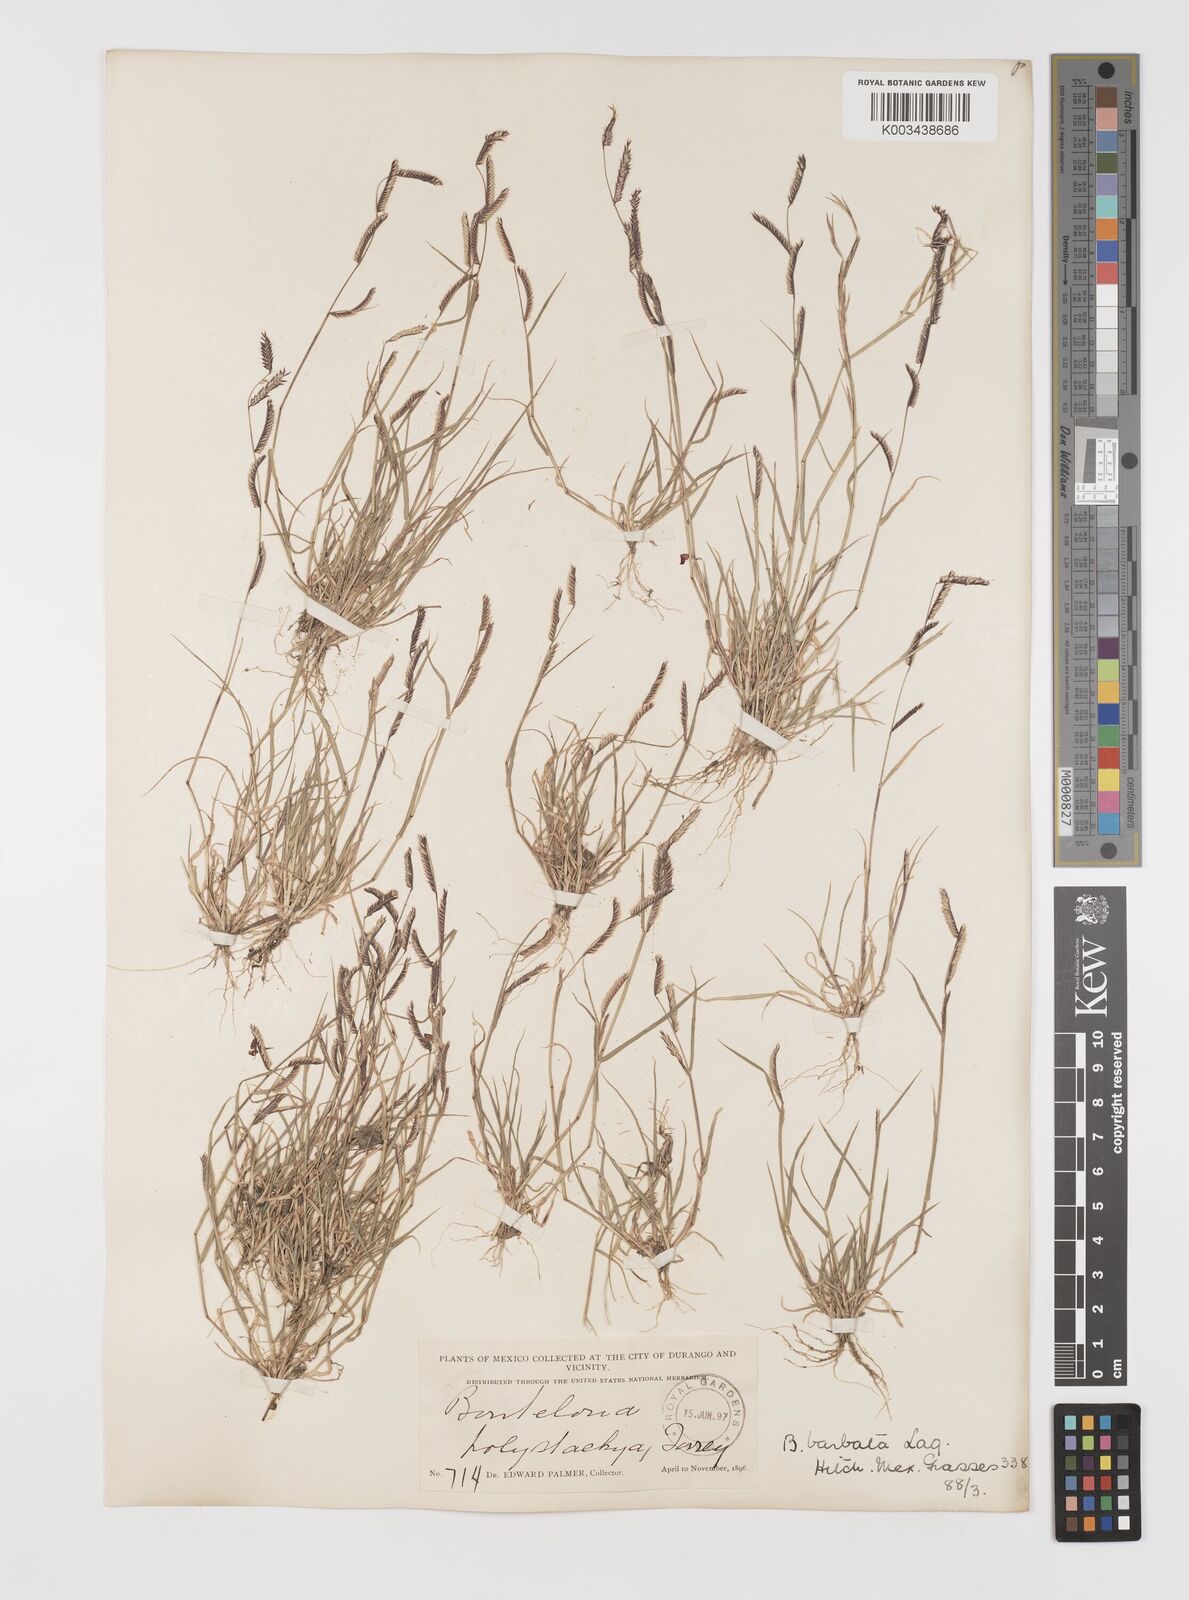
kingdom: Plantae
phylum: Tracheophyta
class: Liliopsida
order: Poales
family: Poaceae
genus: Bouteloua
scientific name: Bouteloua
